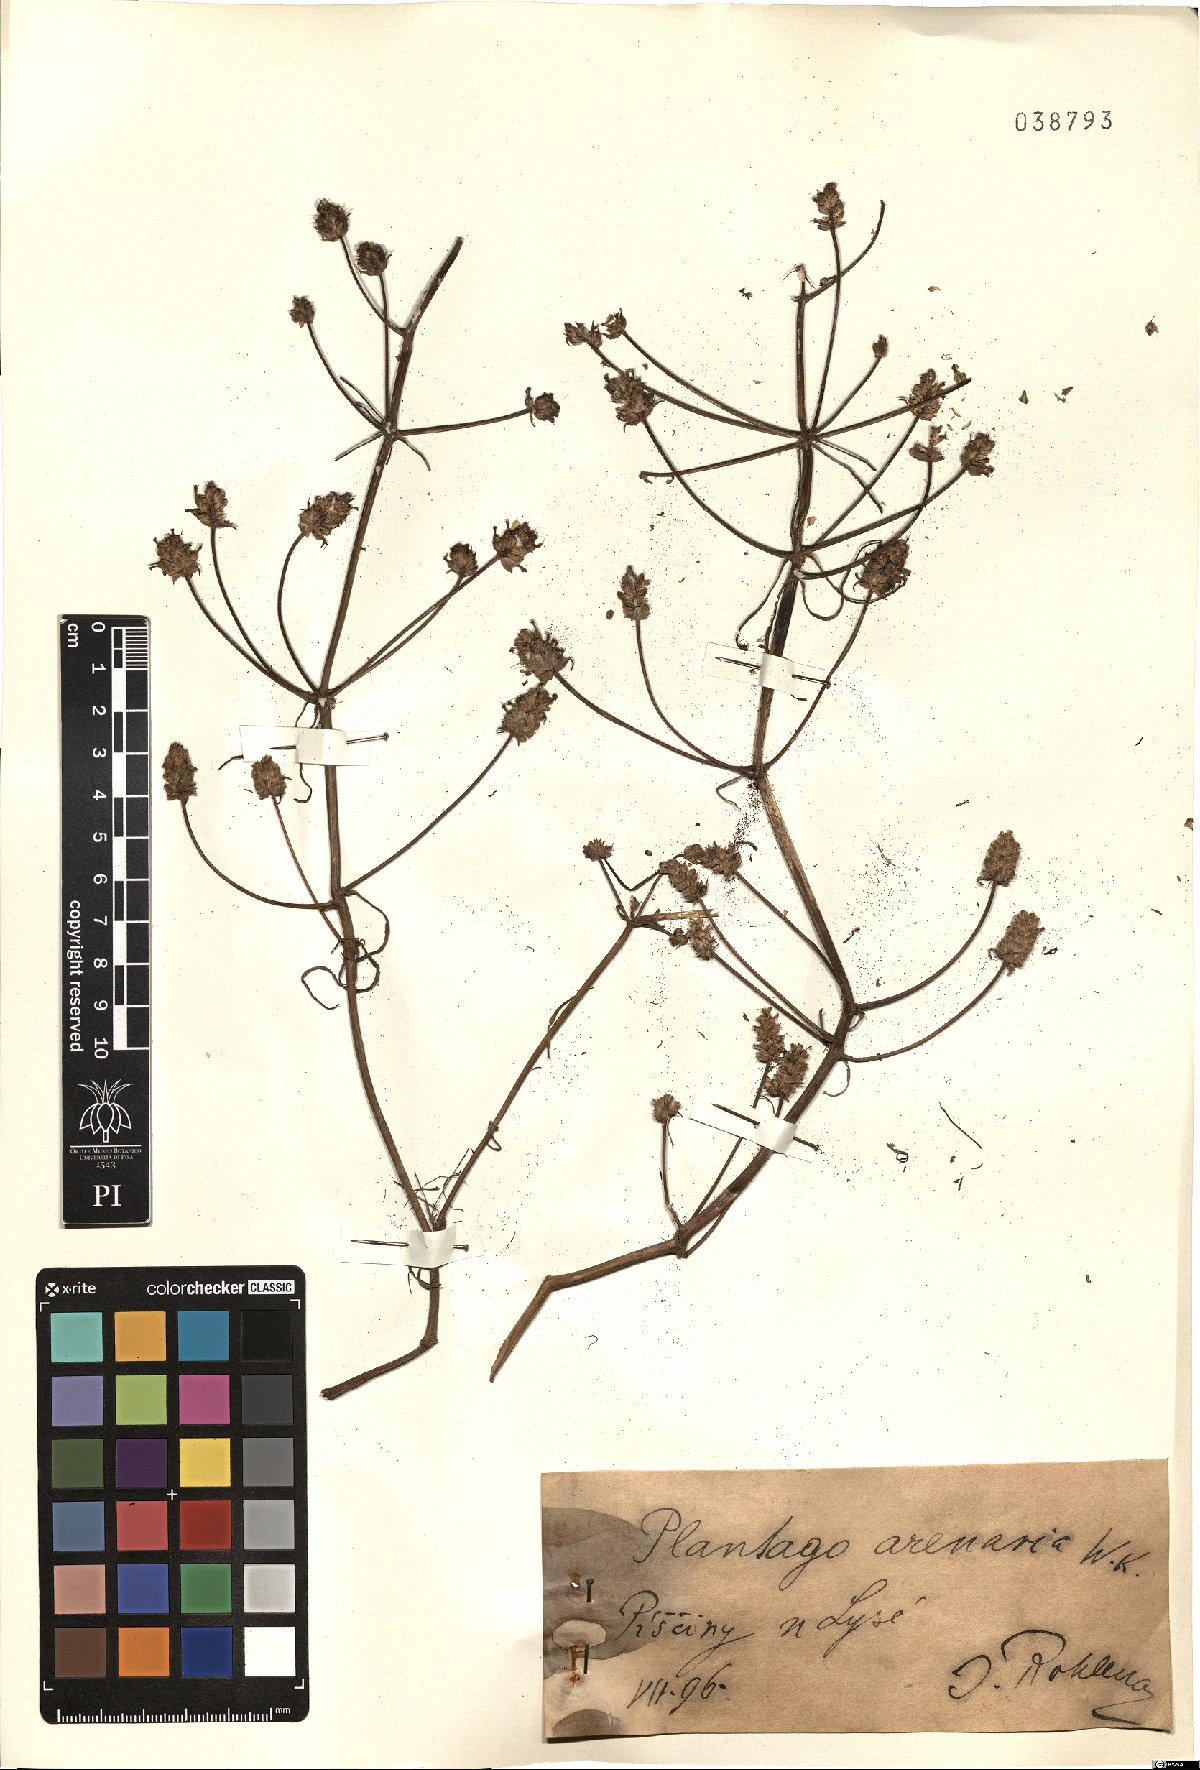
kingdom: Plantae
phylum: Tracheophyta
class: Magnoliopsida
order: Lamiales
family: Plantaginaceae
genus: Plantago
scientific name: Plantago arenaria
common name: Branched plantain
